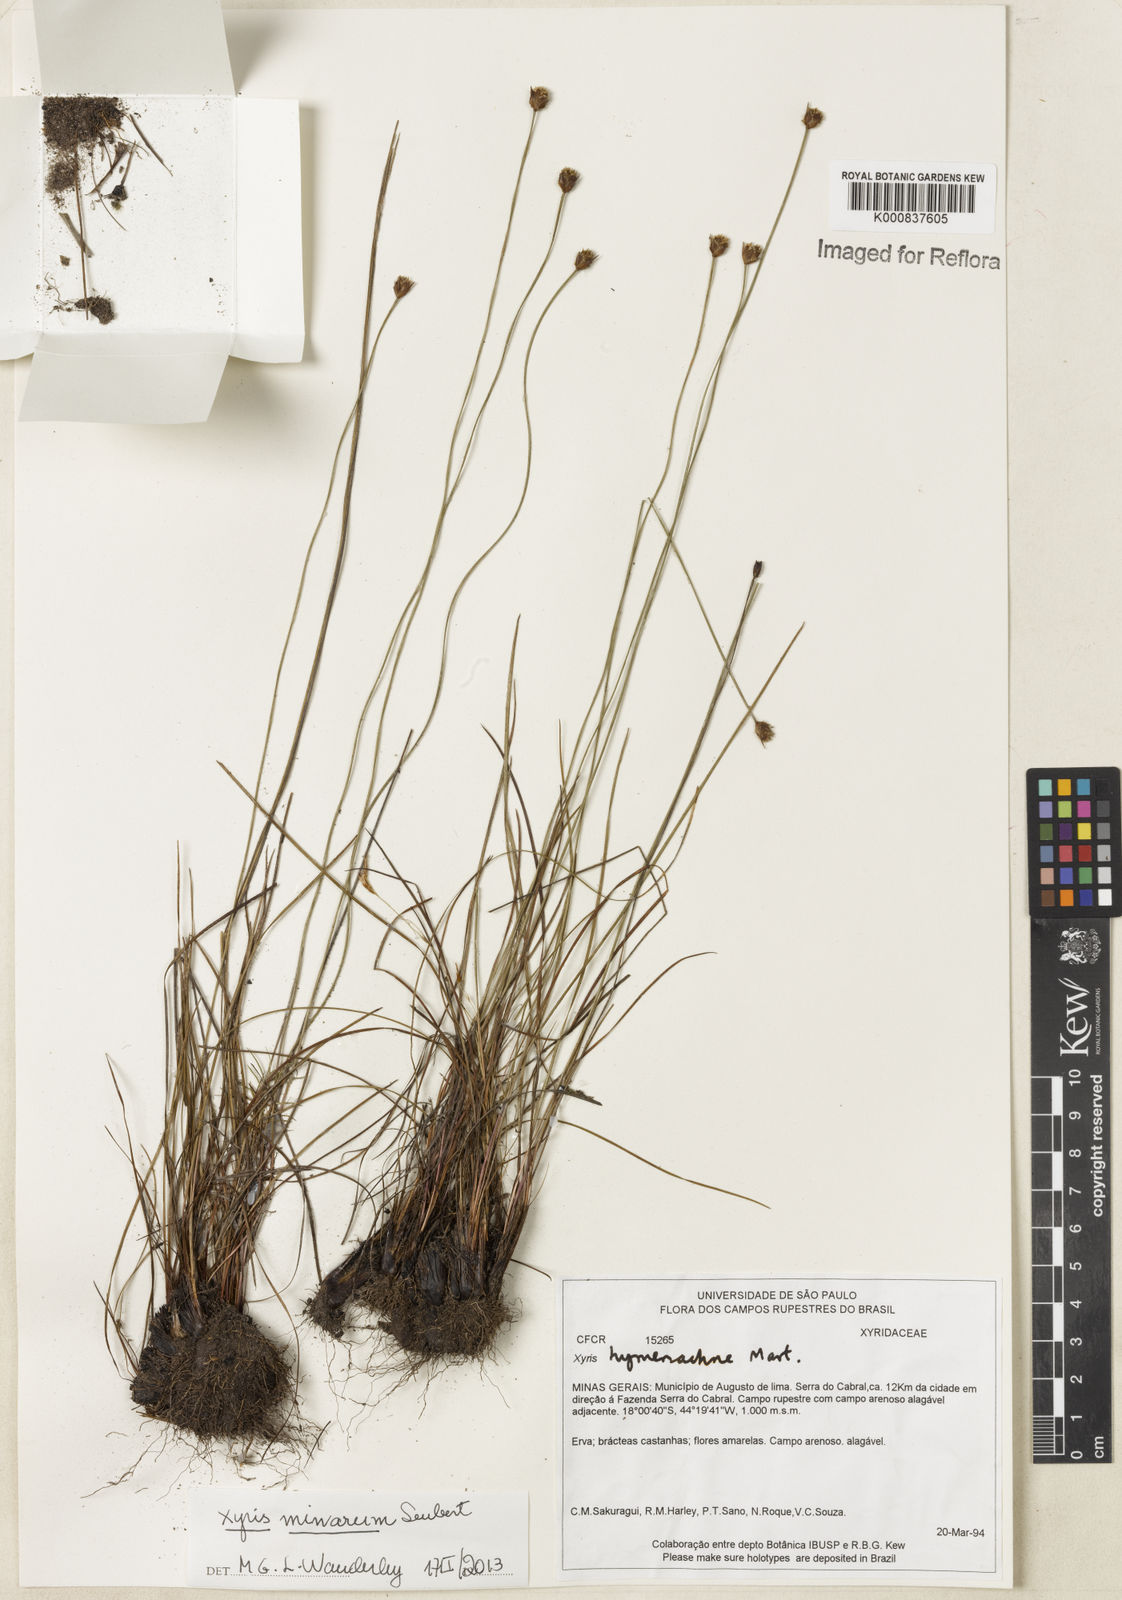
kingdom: Plantae
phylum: Tracheophyta
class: Liliopsida
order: Poales
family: Xyridaceae
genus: Xyris
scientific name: Xyris minarum
